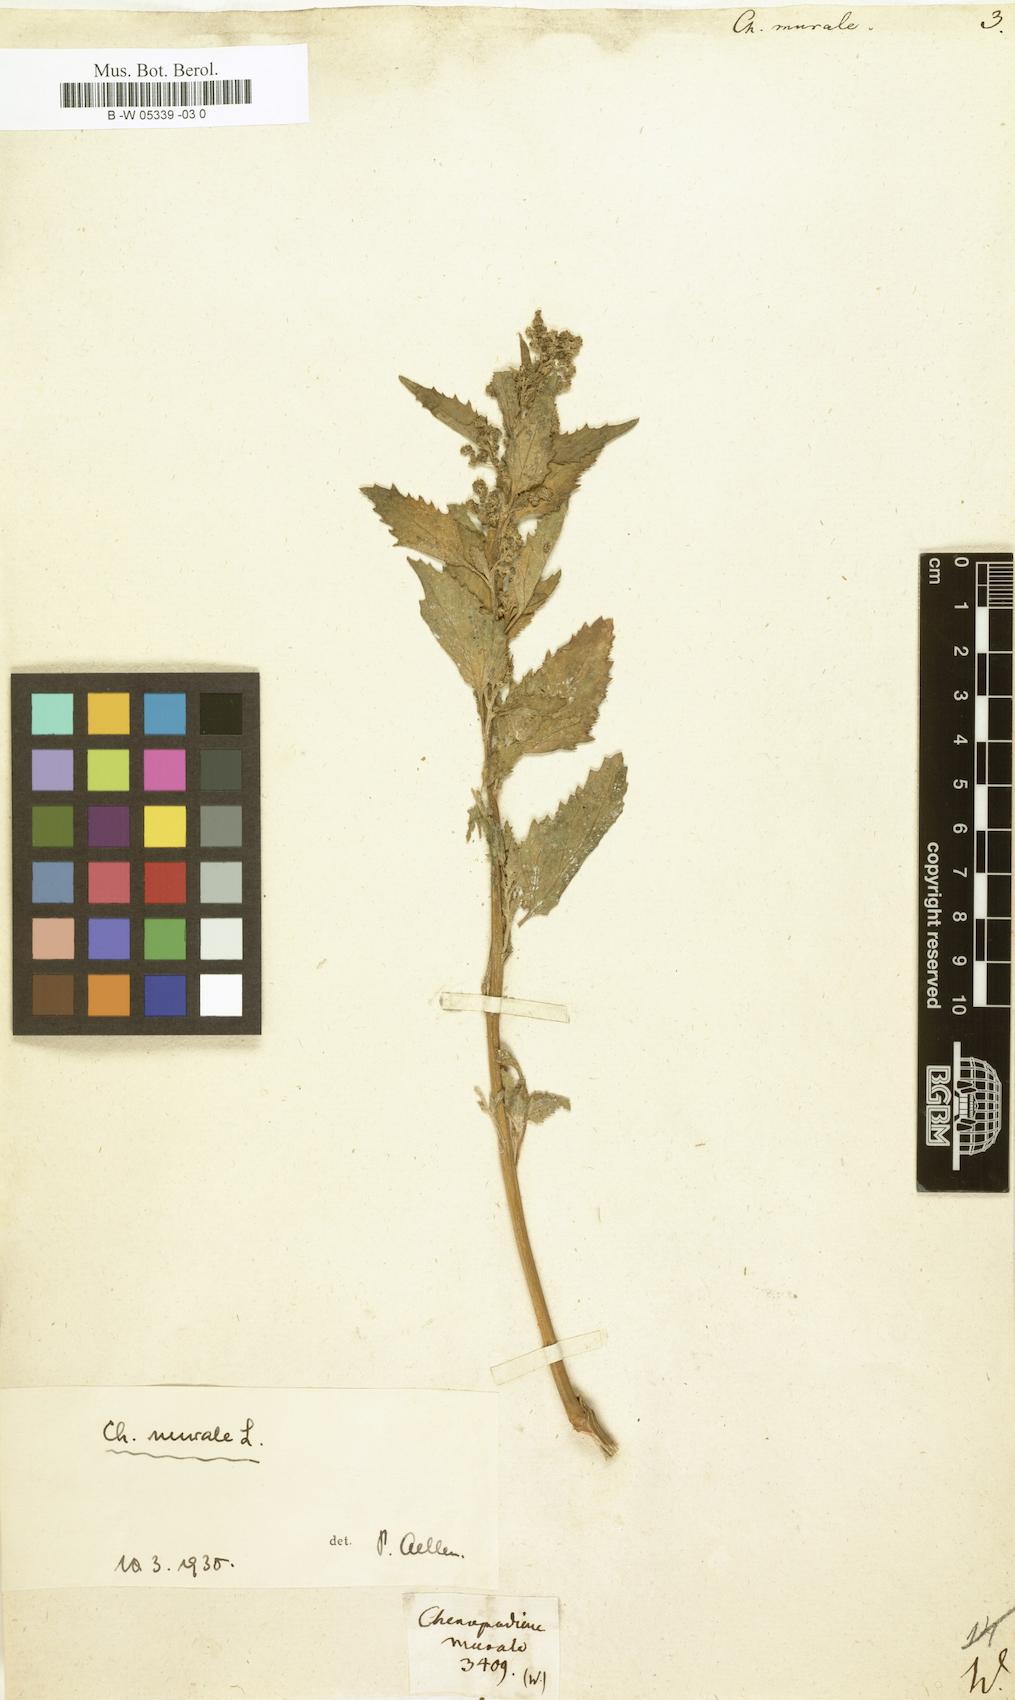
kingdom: Plantae
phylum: Tracheophyta
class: Magnoliopsida
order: Caryophyllales
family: Amaranthaceae
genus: Chenopodiastrum
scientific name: Chenopodiastrum murale
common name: Sowbane
